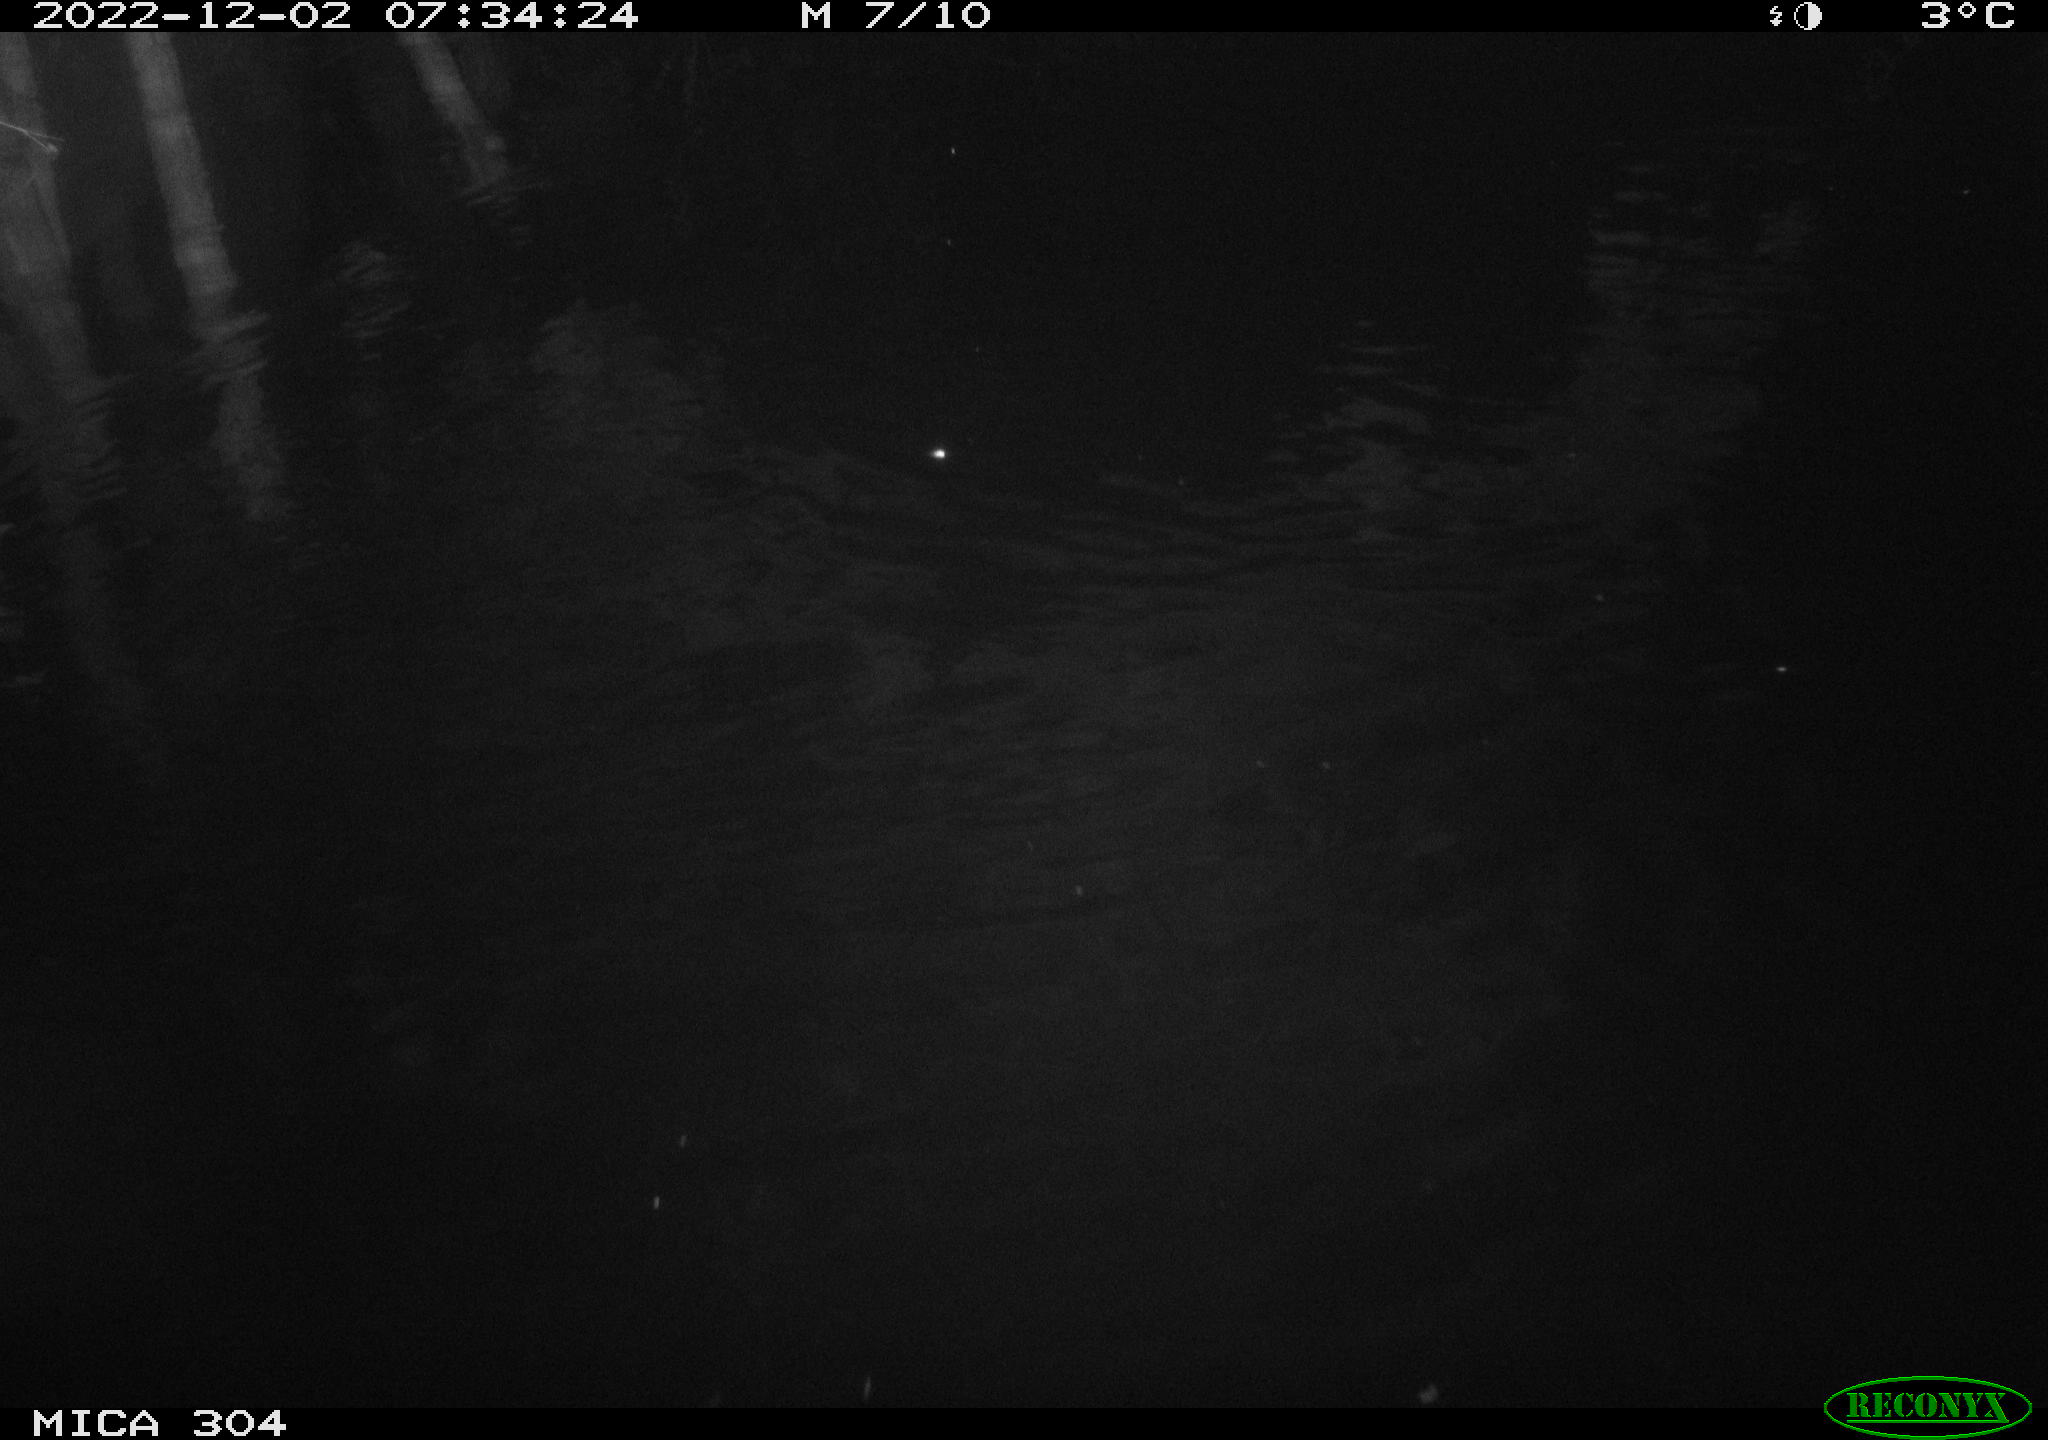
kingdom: Animalia
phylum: Chordata
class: Mammalia
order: Rodentia
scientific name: Rodentia
